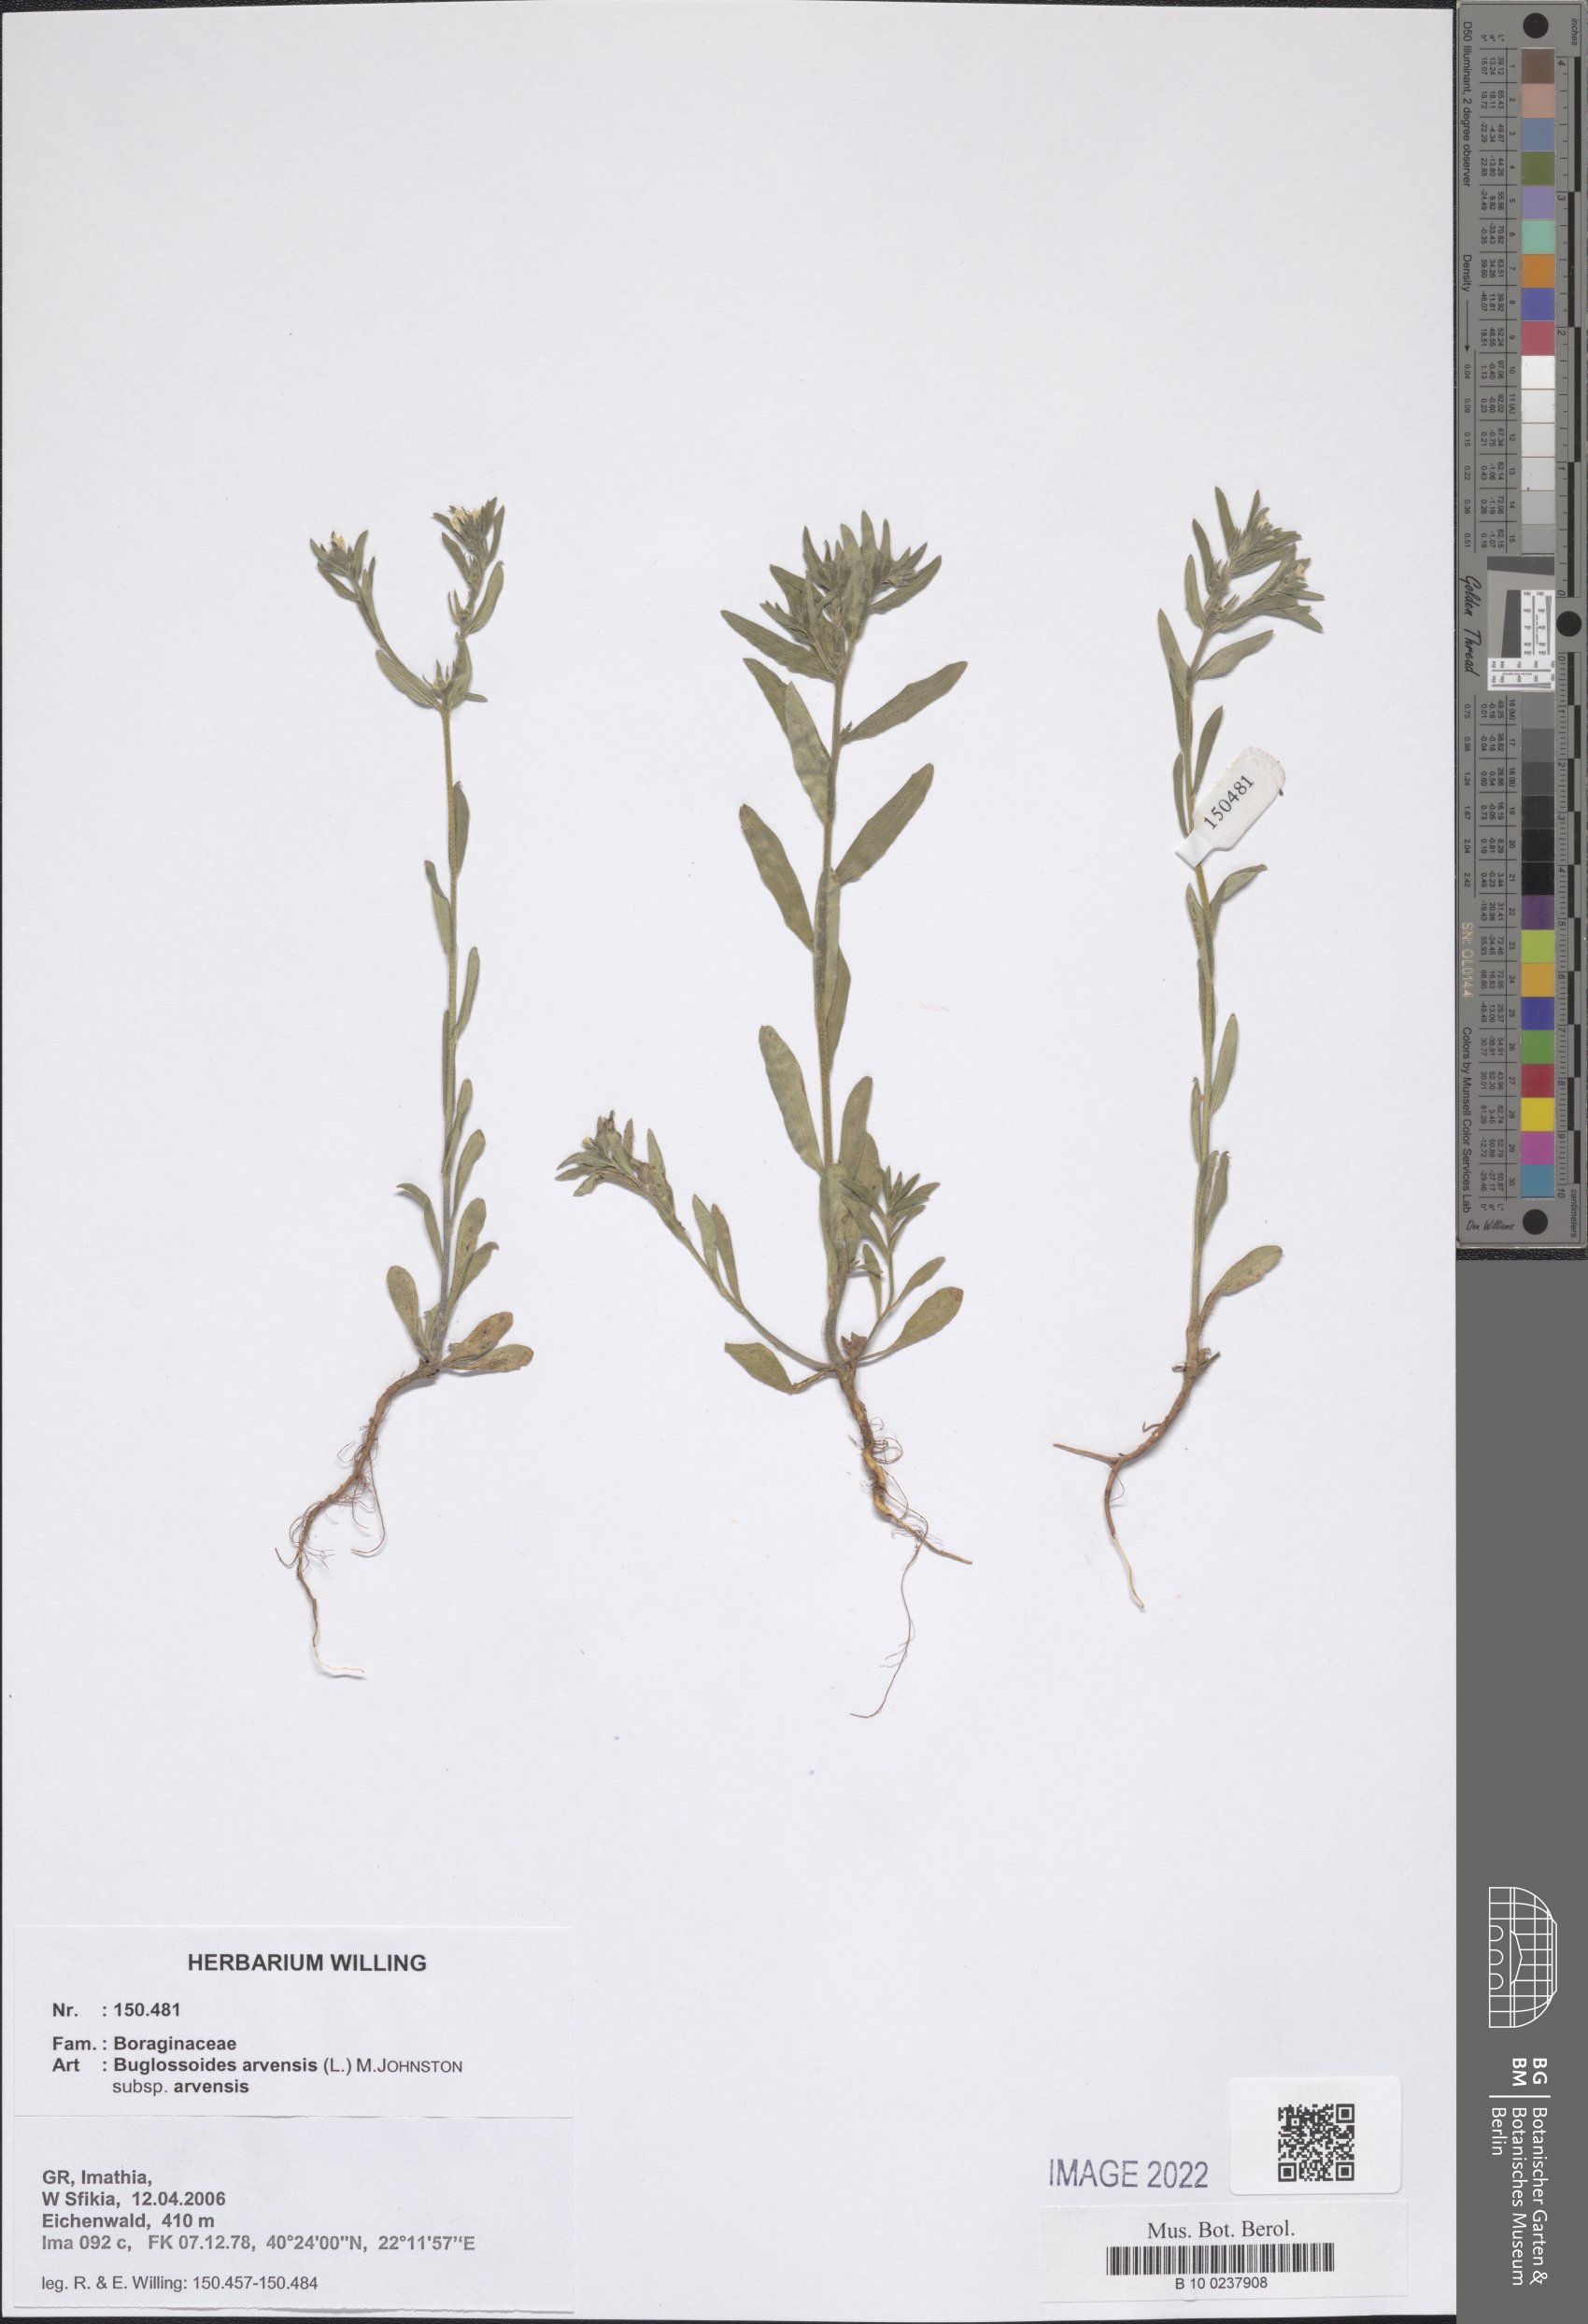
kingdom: Plantae
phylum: Tracheophyta
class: Magnoliopsida
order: Boraginales
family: Boraginaceae
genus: Buglossoides
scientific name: Buglossoides arvensis
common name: Corn gromwell
